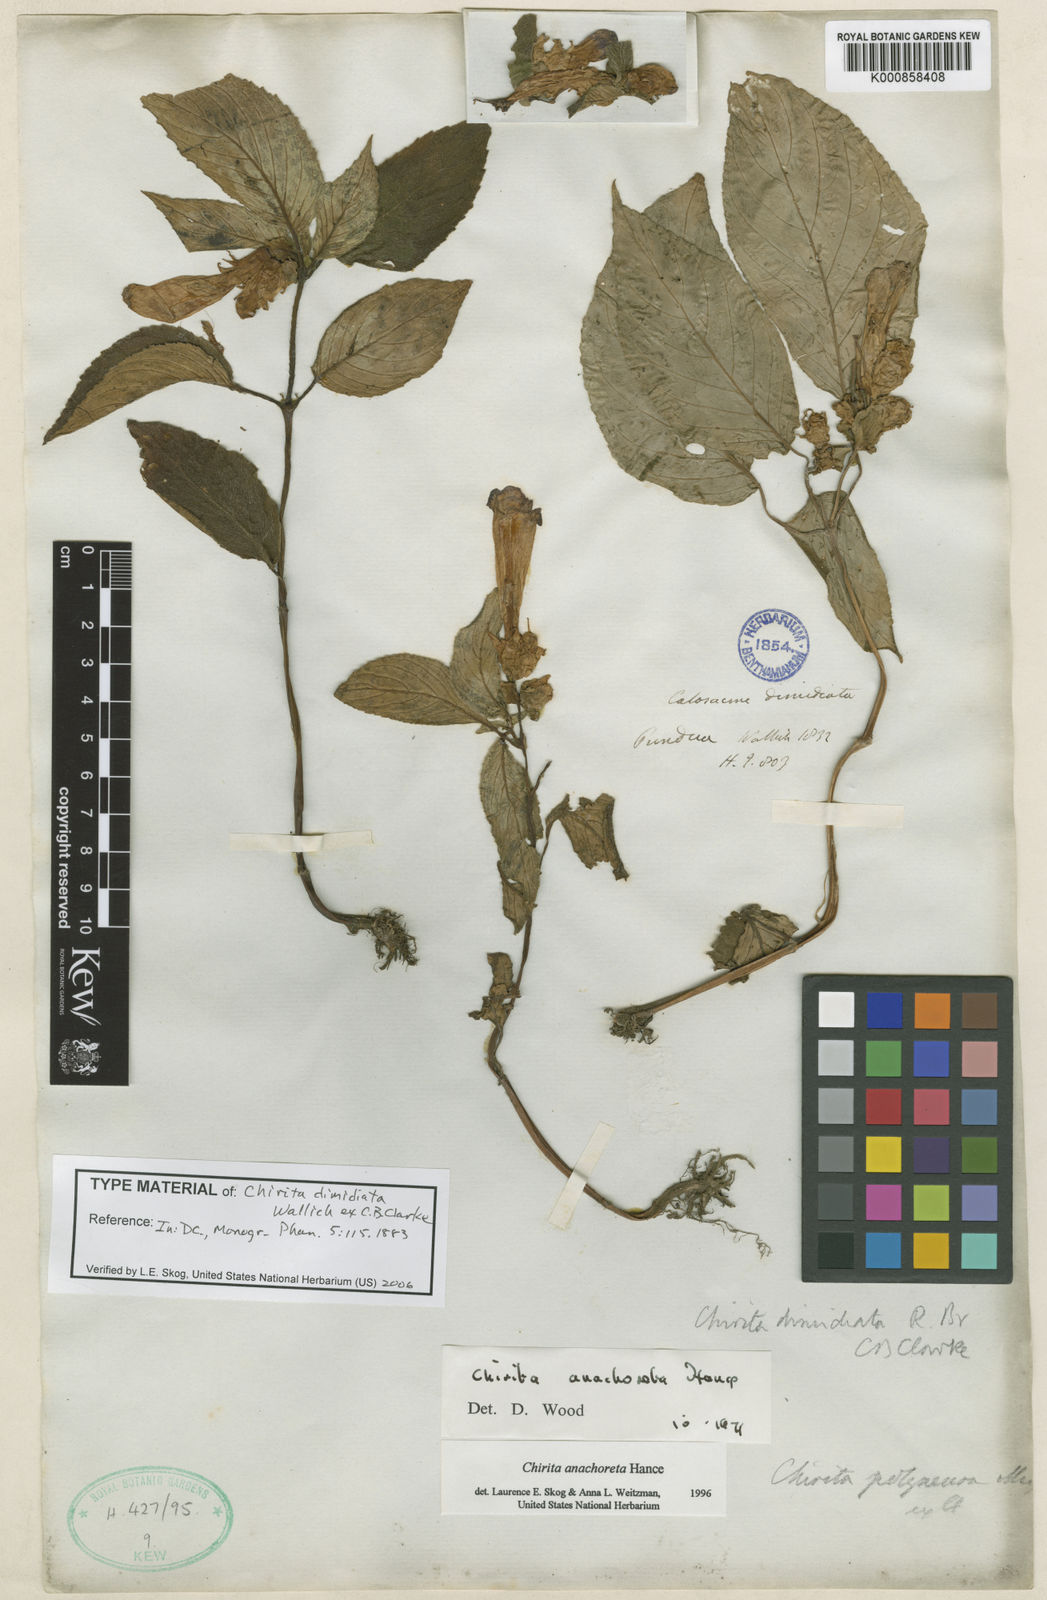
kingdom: Plantae
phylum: Tracheophyta
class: Magnoliopsida
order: Lamiales
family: Gesneriaceae
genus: Henckelia
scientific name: Henckelia anachoreta
